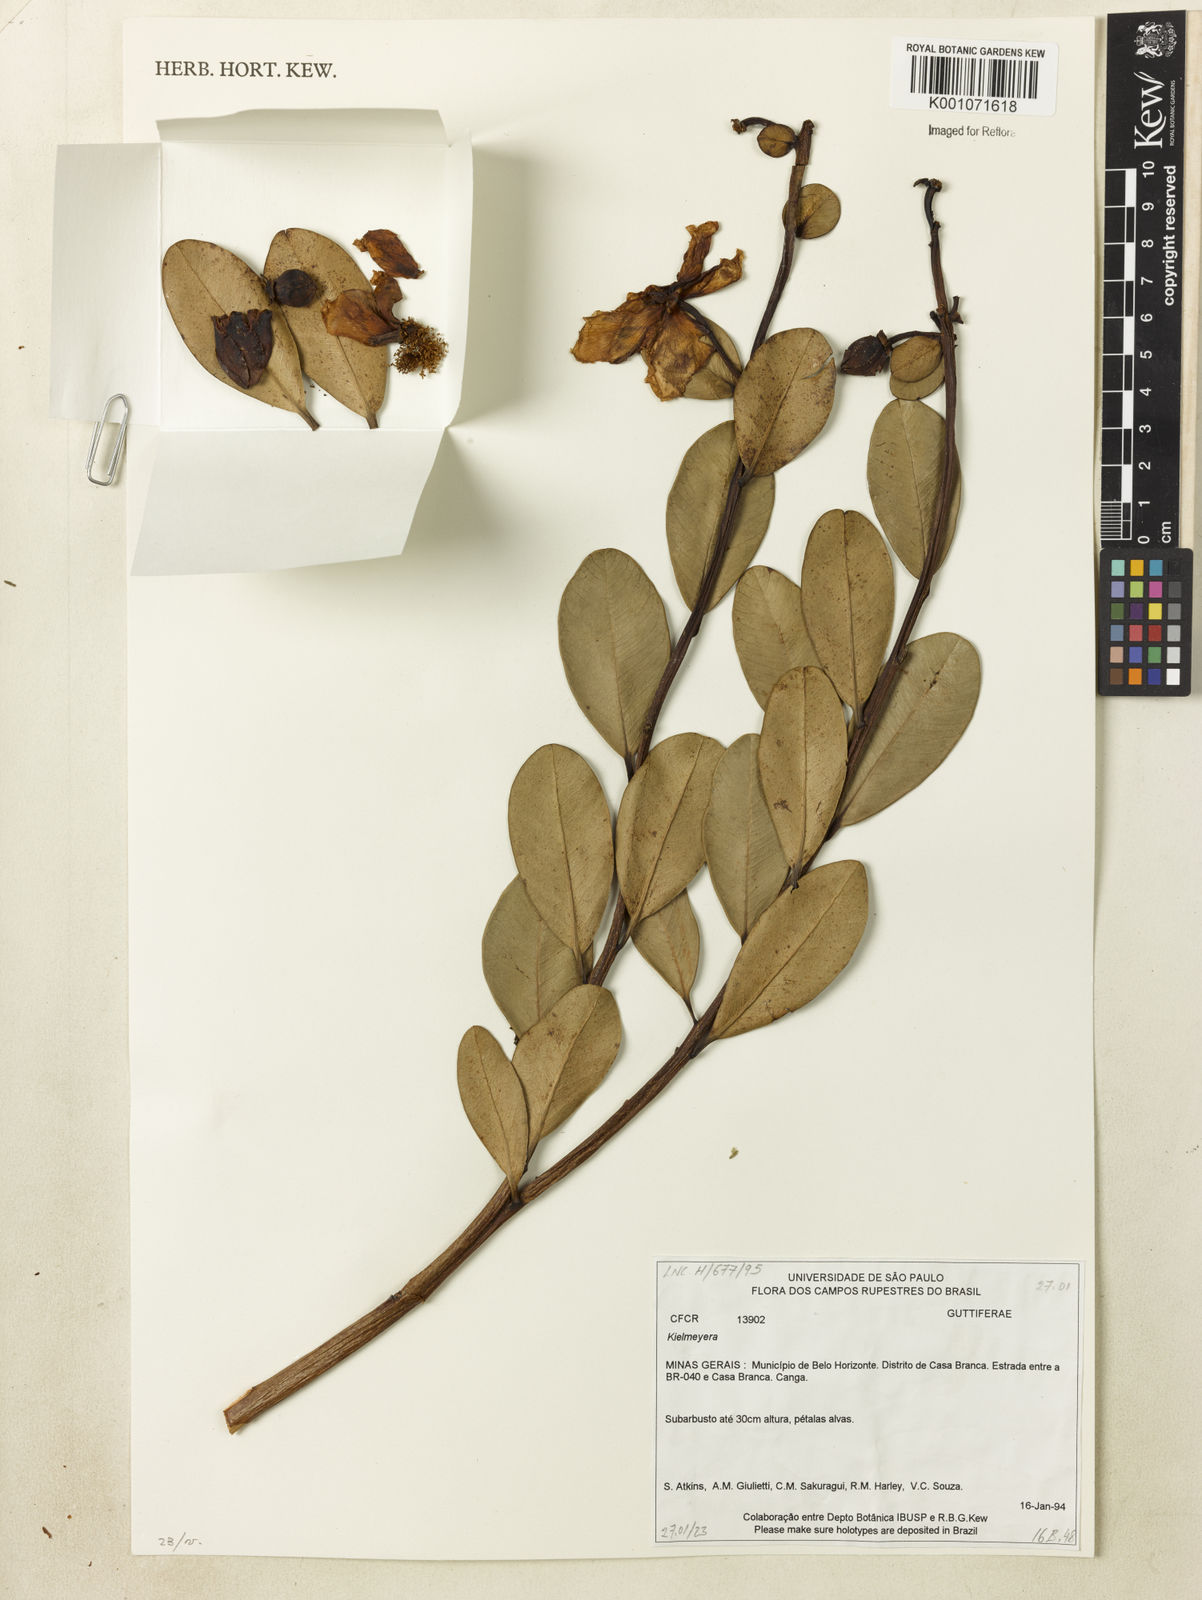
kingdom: Plantae
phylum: Tracheophyta
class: Magnoliopsida
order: Malpighiales
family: Calophyllaceae
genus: Kielmeyera
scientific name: Kielmeyera variabilis
